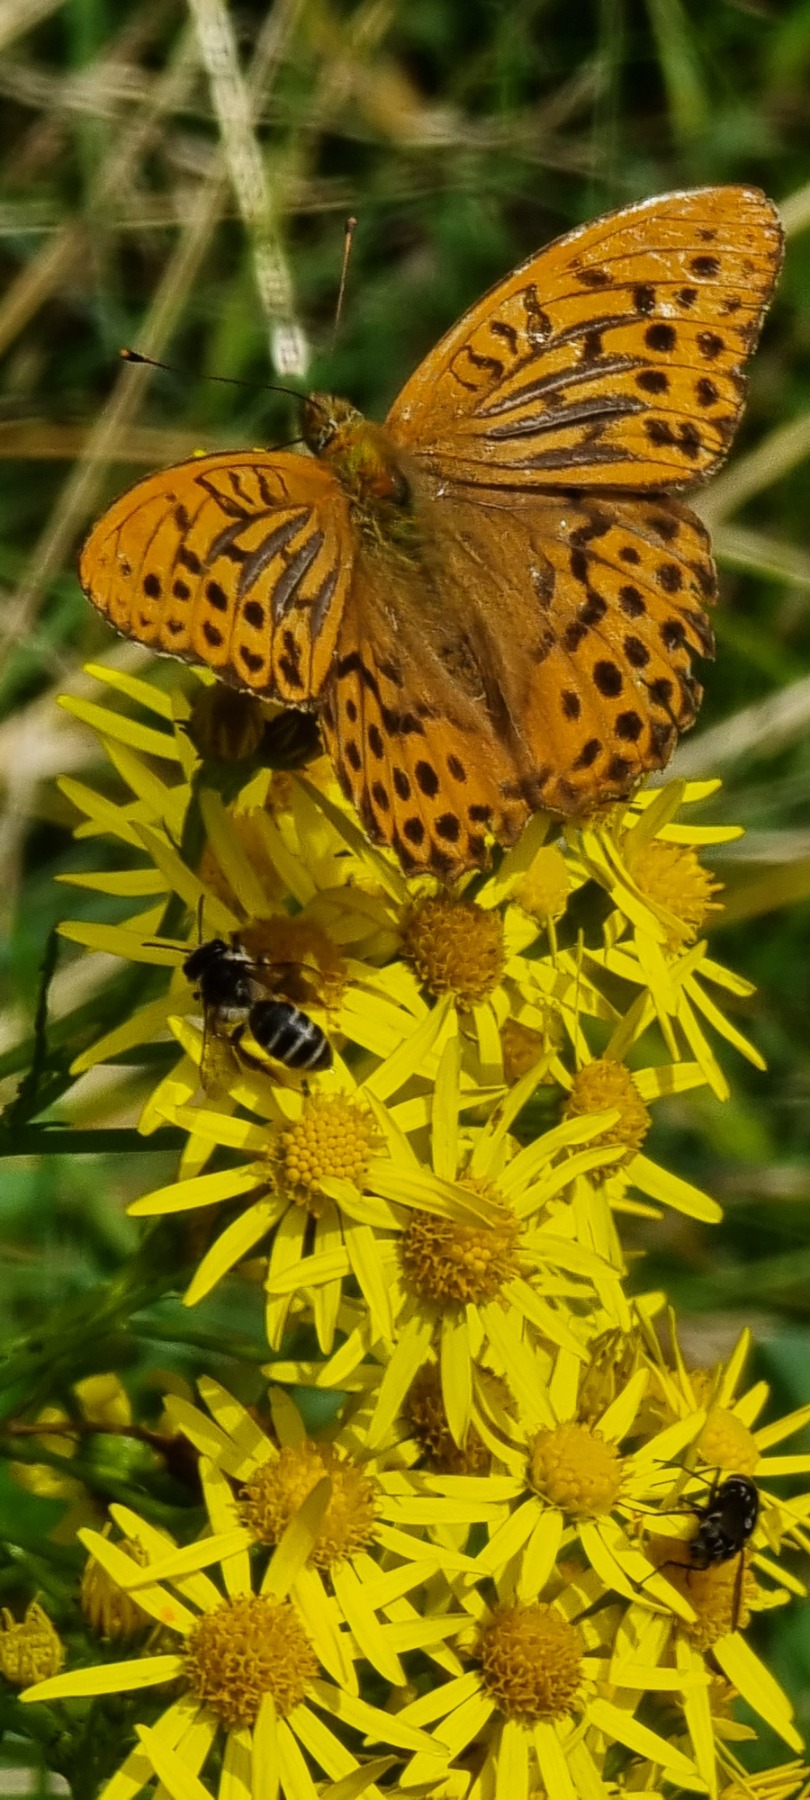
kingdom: Animalia
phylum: Arthropoda
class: Insecta
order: Lepidoptera
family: Nymphalidae
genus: Argynnis
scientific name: Argynnis paphia
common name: Kejserkåbe
